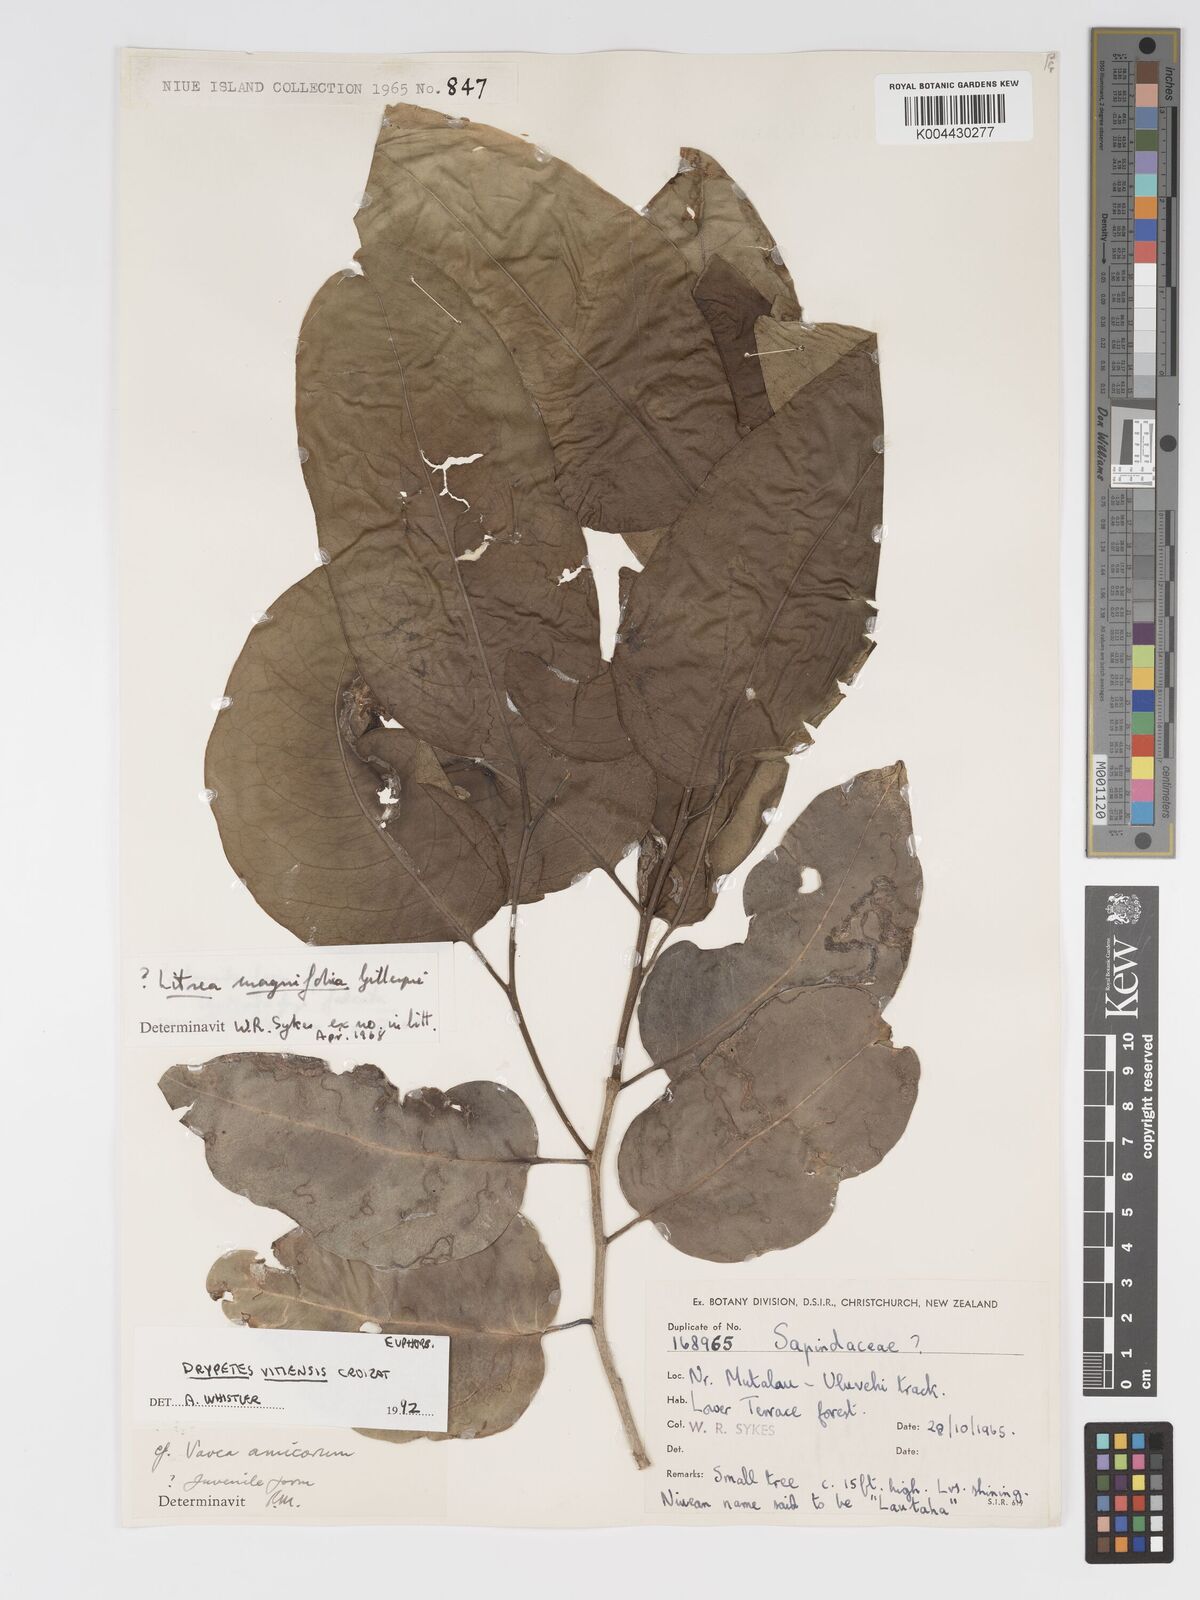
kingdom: Plantae
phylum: Tracheophyta
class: Magnoliopsida
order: Malpighiales
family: Putranjivaceae
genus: Drypetes
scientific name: Drypetes vitiensis
